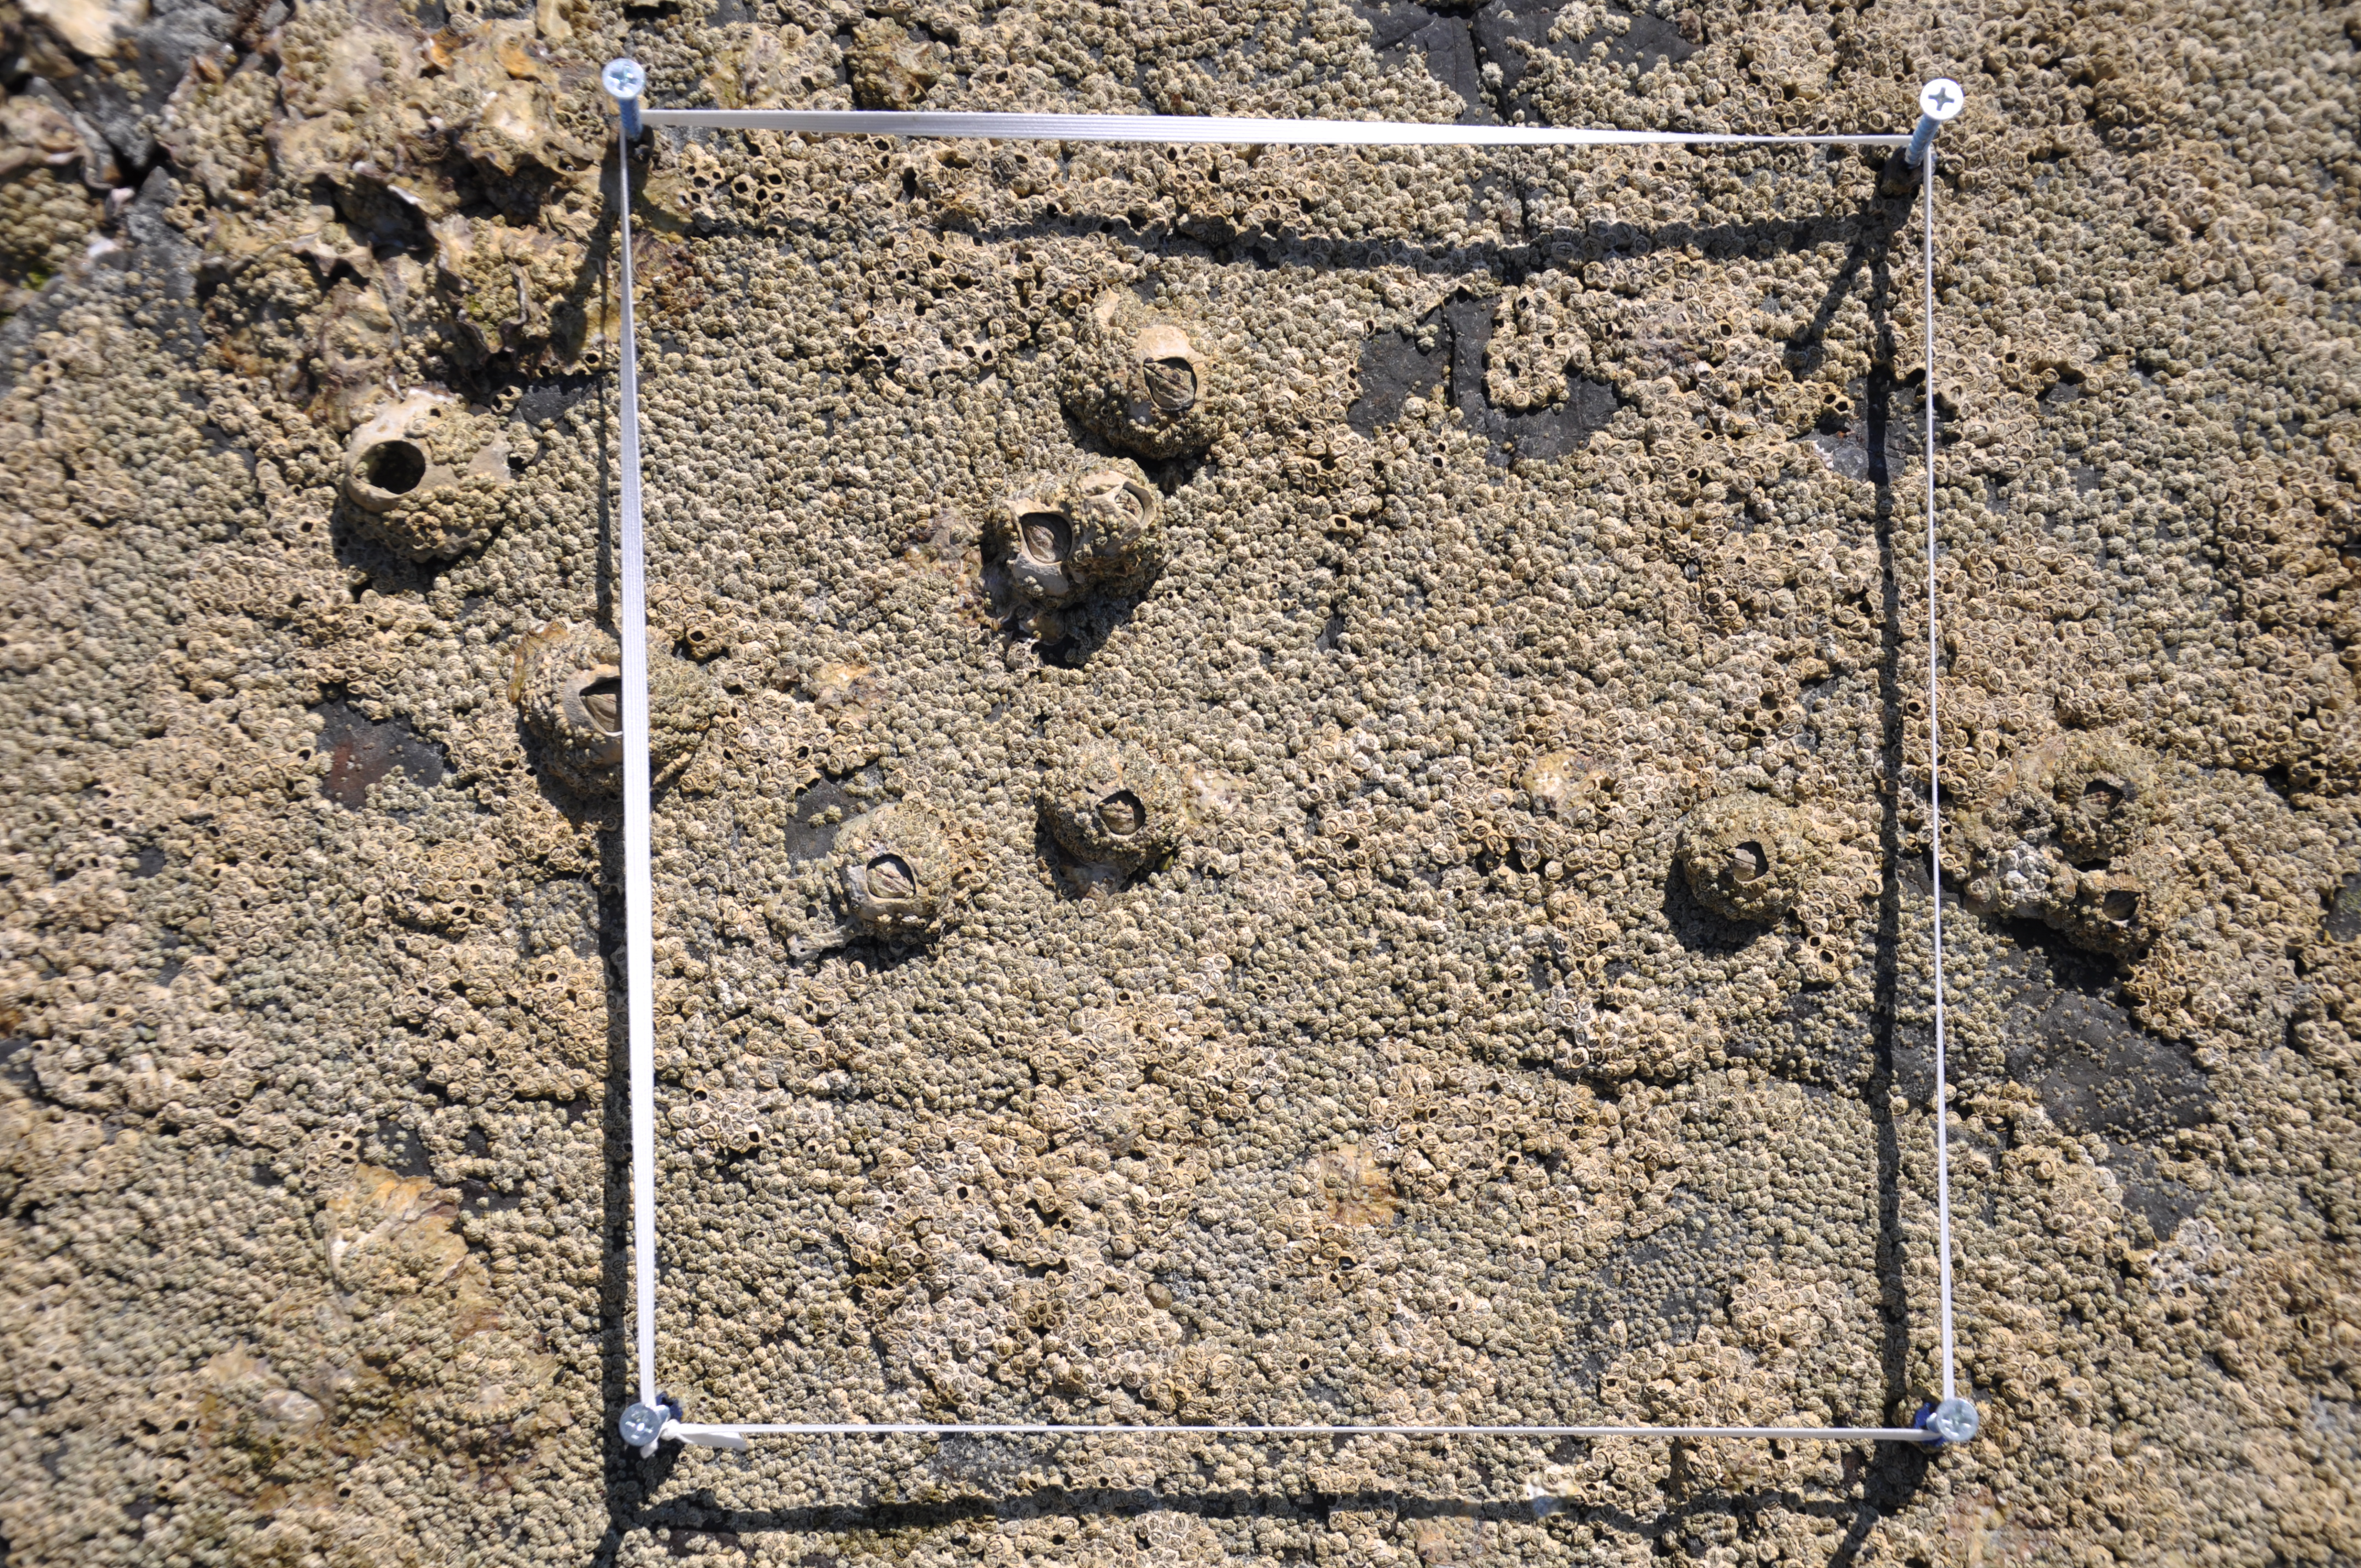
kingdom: Animalia
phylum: Arthropoda
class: Maxillopoda
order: Sessilia
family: Chthamalidae
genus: Chthamalus
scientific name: Chthamalus challengeri
